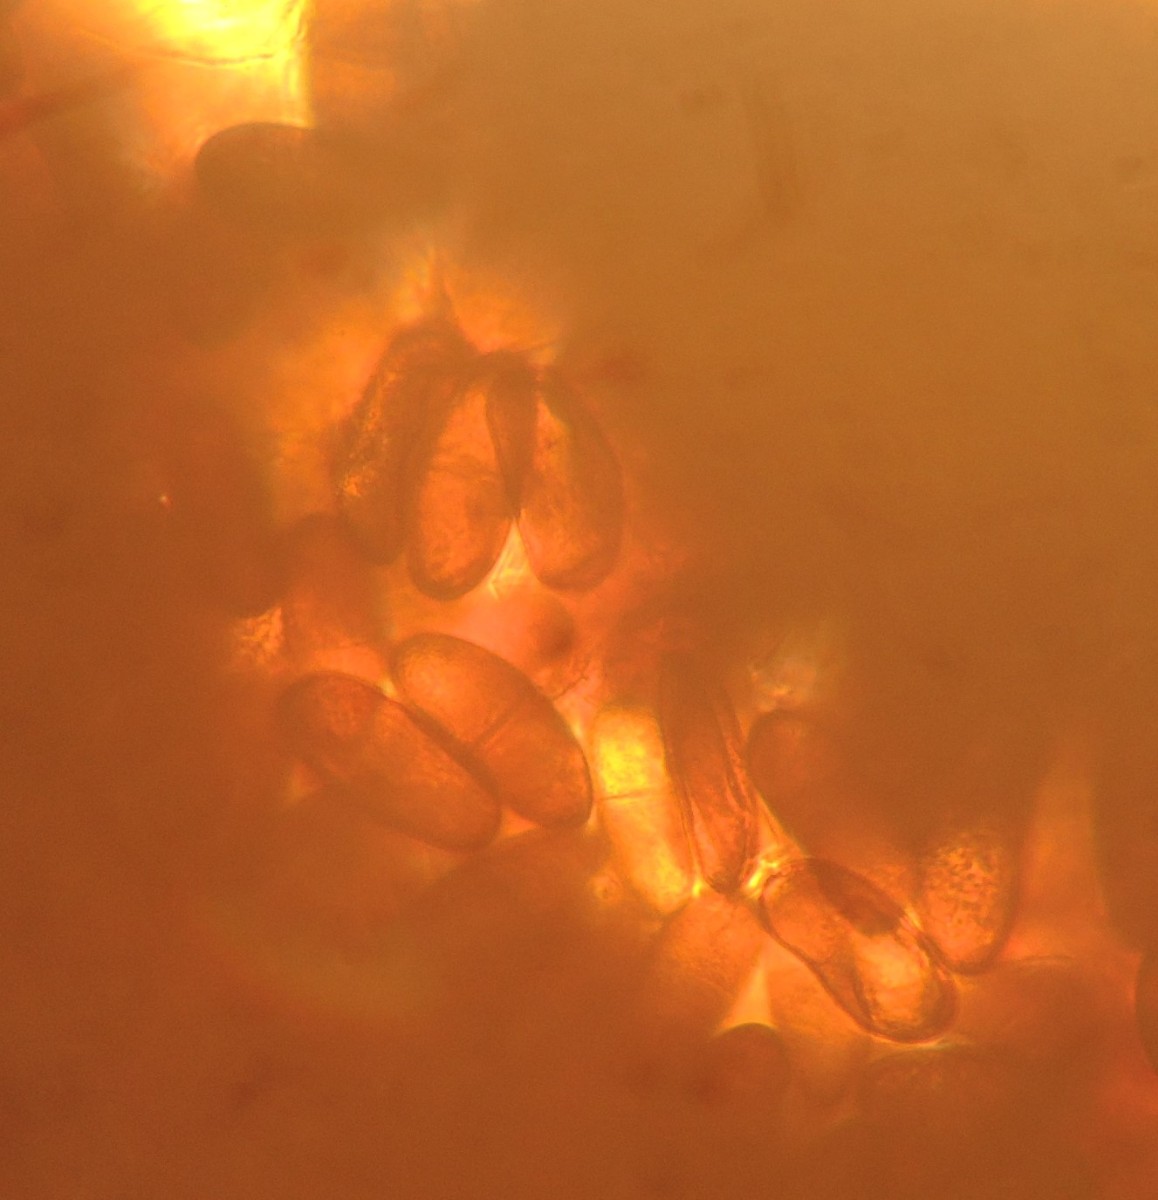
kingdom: Fungi
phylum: Ascomycota
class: Dothideomycetes
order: Botryosphaeriales
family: Botryosphaeriaceae
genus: Sphaeropsis
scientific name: Sphaeropsis sapinea
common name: Sphaeropsis blight
